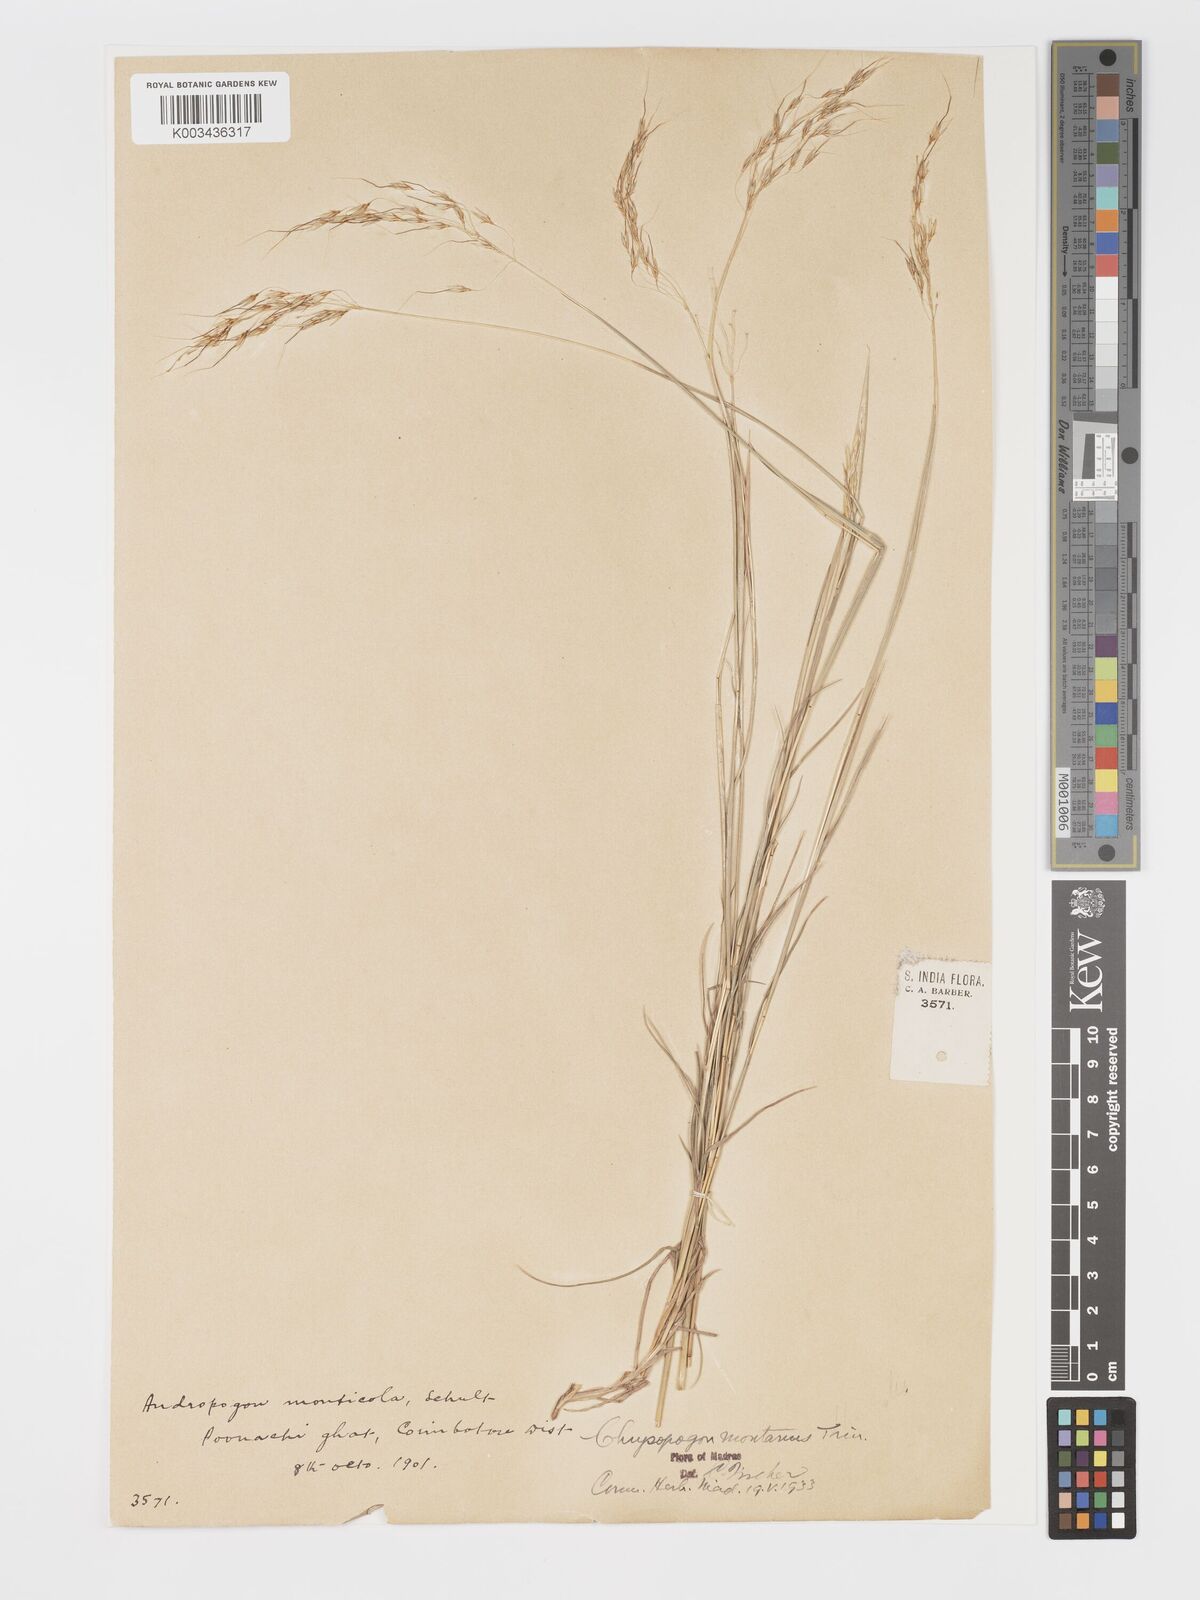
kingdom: Plantae
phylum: Tracheophyta
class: Liliopsida
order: Poales
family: Poaceae
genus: Chrysopogon
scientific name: Chrysopogon fulvus
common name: Red false beardgrass
